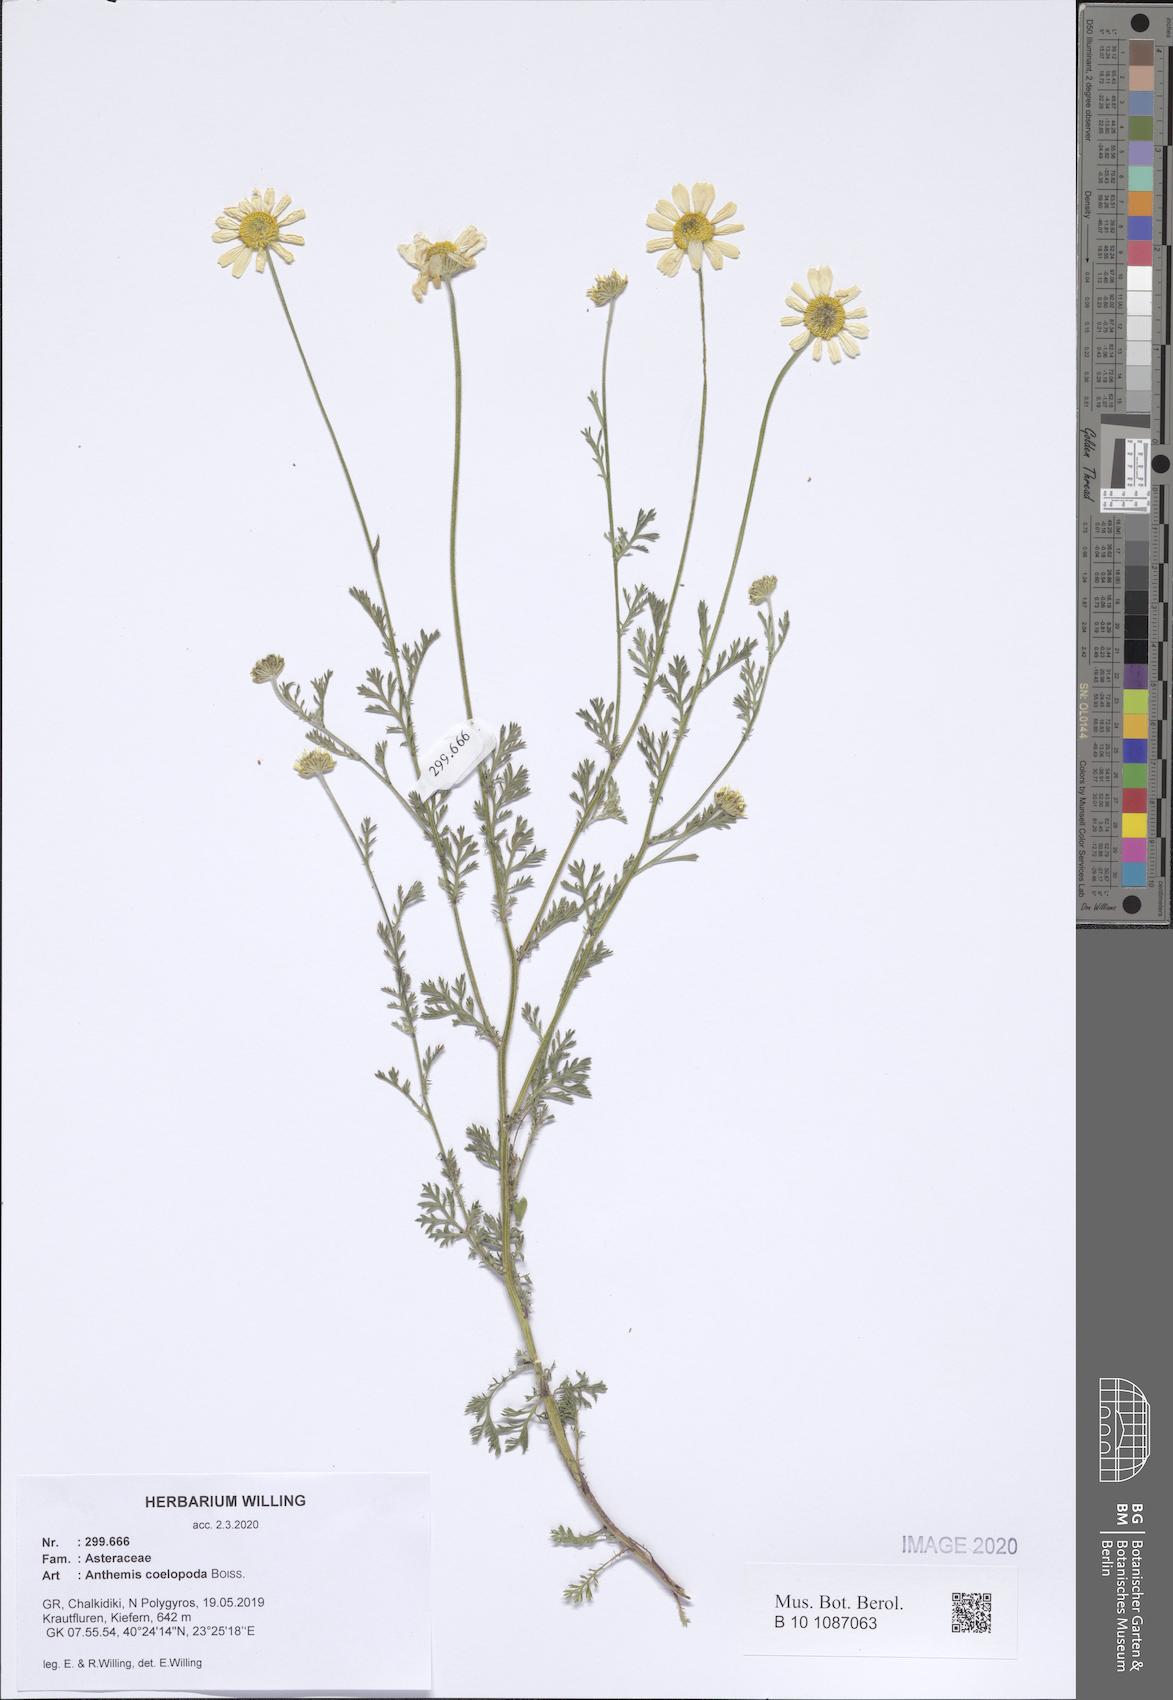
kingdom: Plantae
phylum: Tracheophyta
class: Magnoliopsida
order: Asterales
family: Asteraceae
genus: Cota
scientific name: Cota coelopoda
